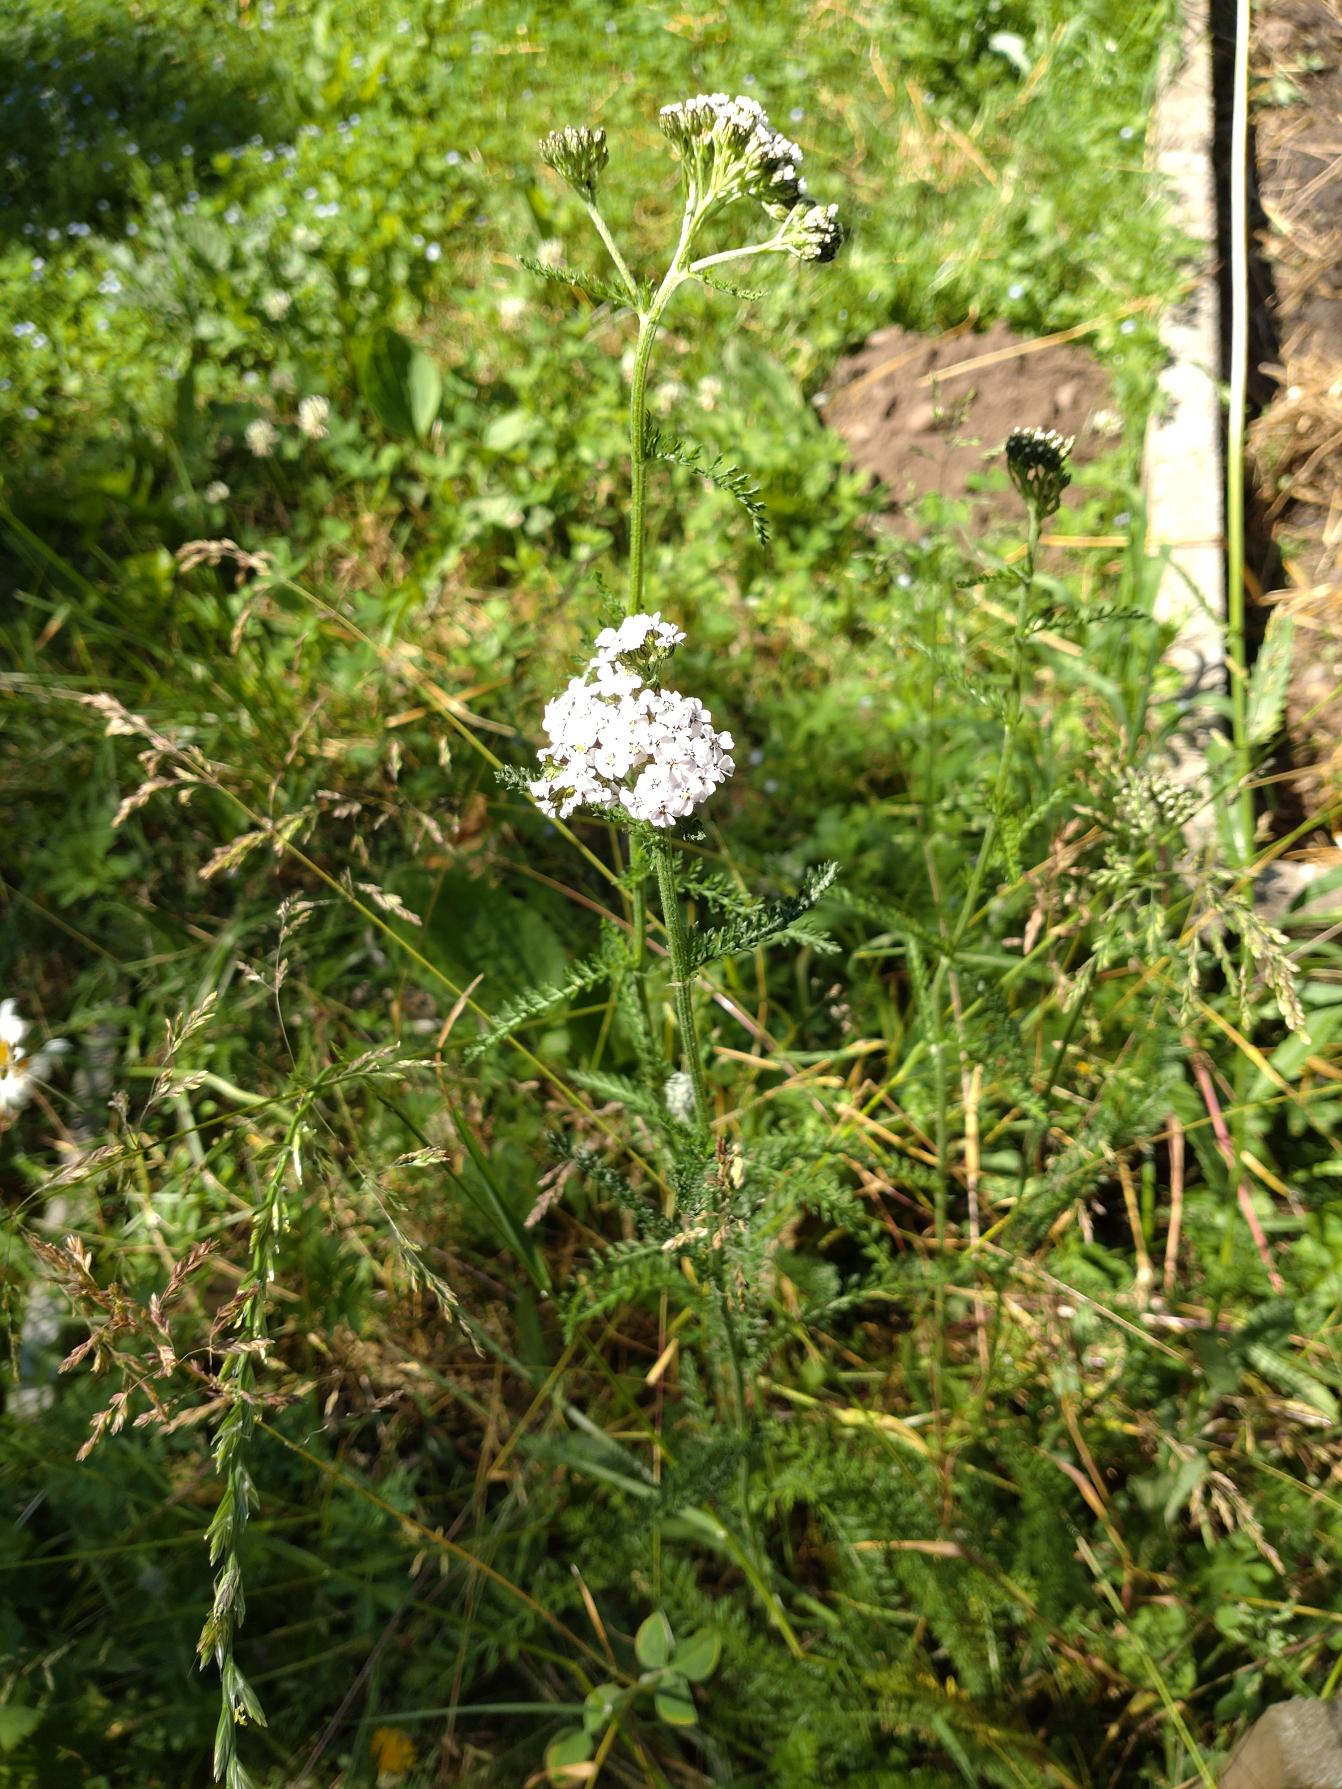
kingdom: Plantae
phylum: Tracheophyta
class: Magnoliopsida
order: Asterales
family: Asteraceae
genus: Achillea
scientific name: Achillea millefolium
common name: Almindelig røllike
